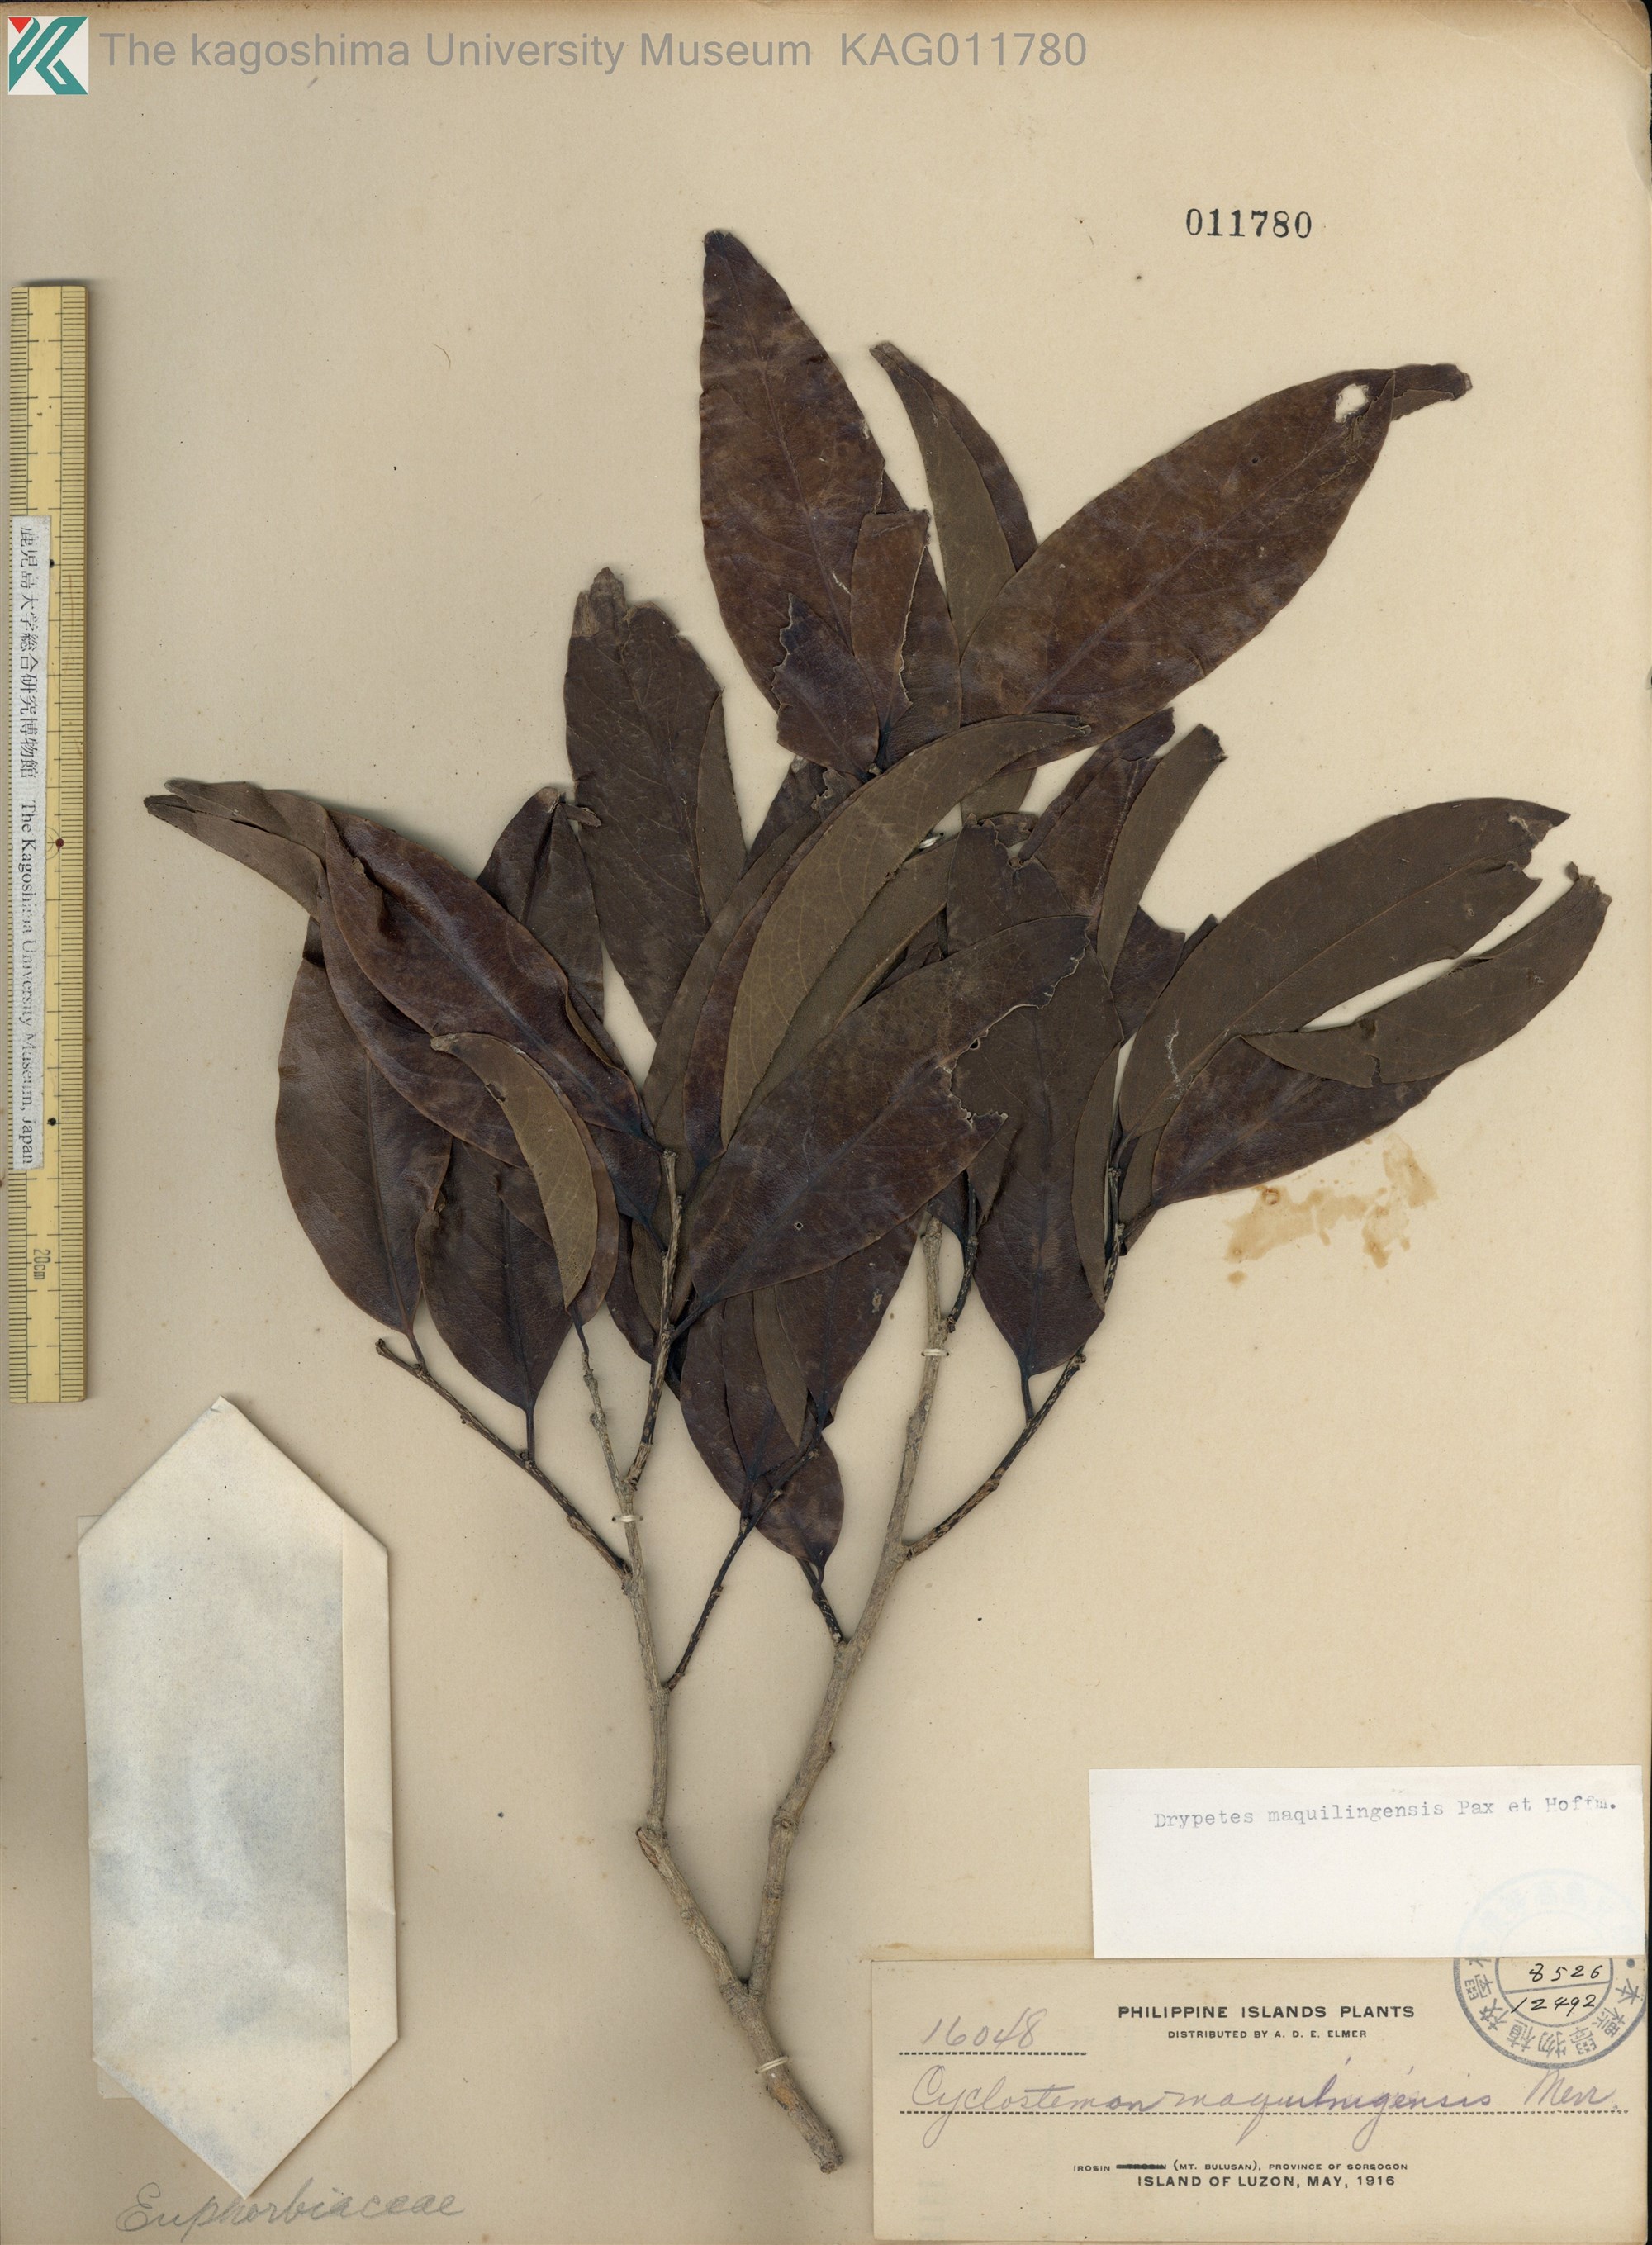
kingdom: Plantae
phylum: Tracheophyta
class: Magnoliopsida
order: Malpighiales
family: Putranjivaceae
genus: Drypetes
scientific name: Drypetes maquilingensis
